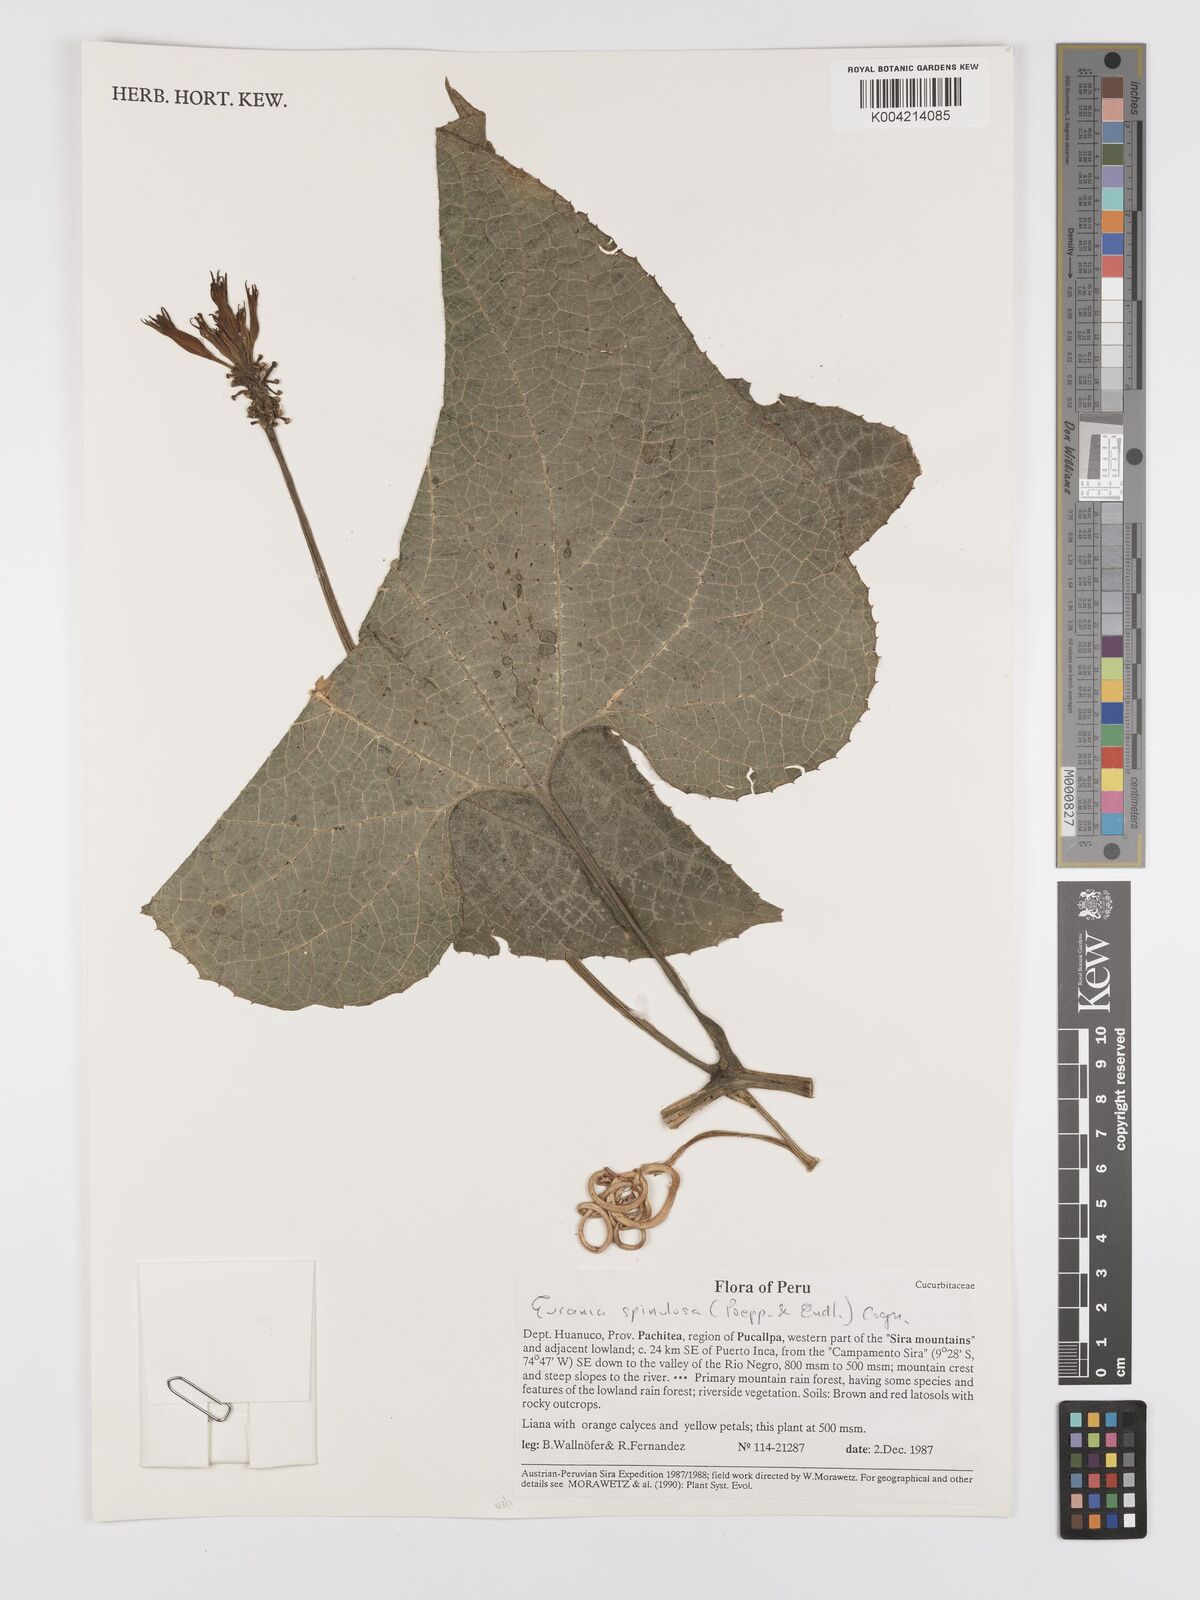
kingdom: Plantae
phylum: Tracheophyta
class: Magnoliopsida
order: Cucurbitales
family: Cucurbitaceae
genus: Gurania
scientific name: Gurania lobata
